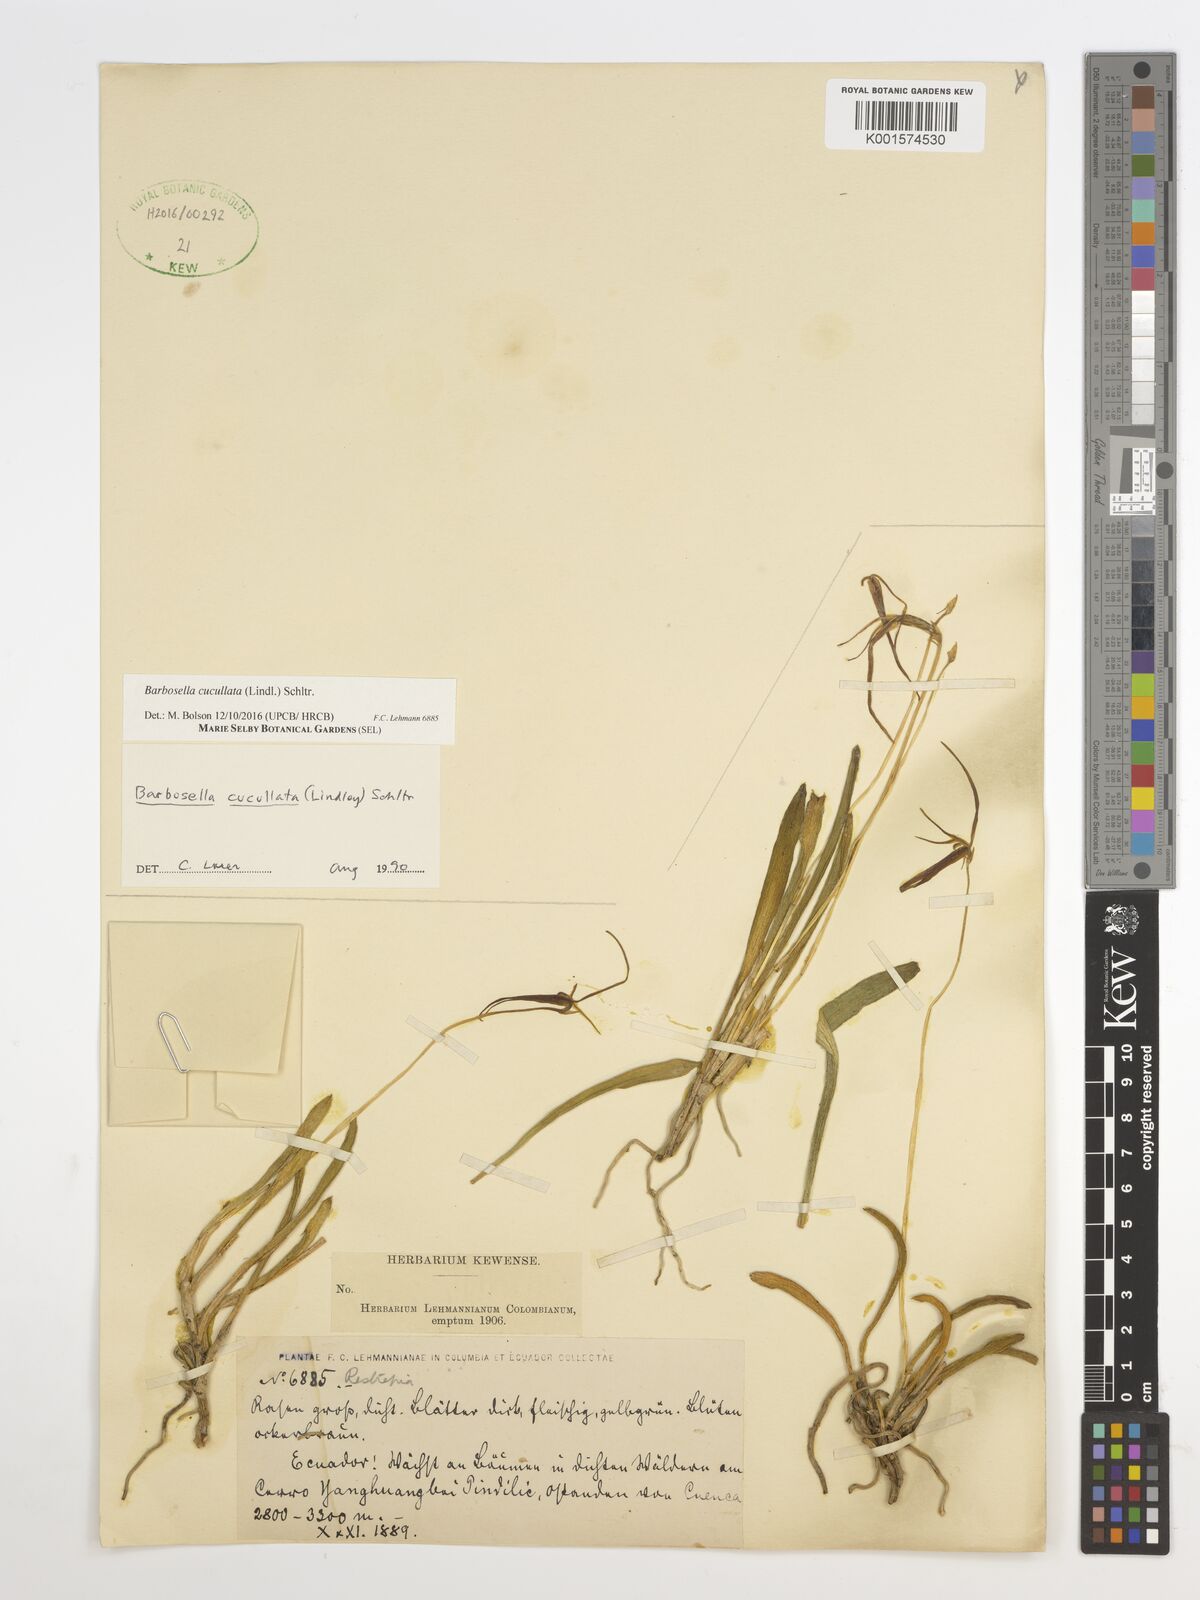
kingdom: Plantae
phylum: Tracheophyta
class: Liliopsida
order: Asparagales
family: Orchidaceae
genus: Barbosella
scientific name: Barbosella cucullata
